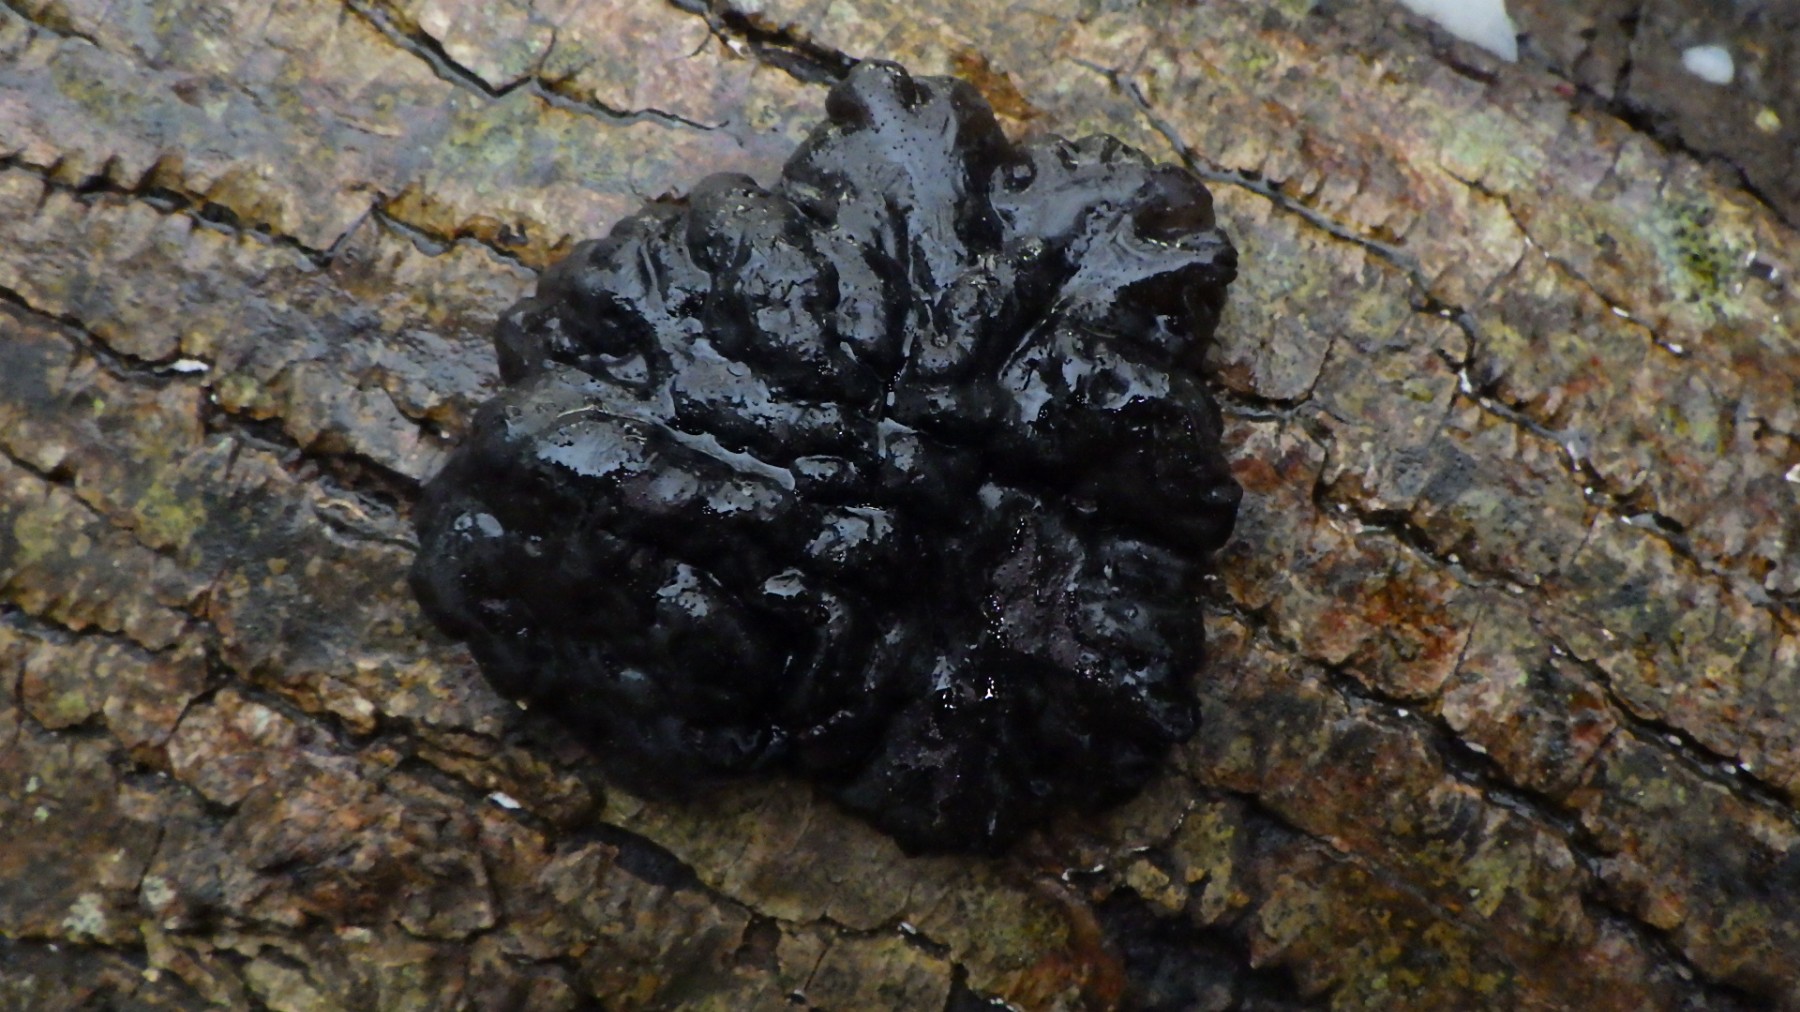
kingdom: Fungi
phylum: Basidiomycota
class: Agaricomycetes
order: Auriculariales
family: Auriculariaceae
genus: Exidia
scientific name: Exidia nigricans
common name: almindelig bævretop
